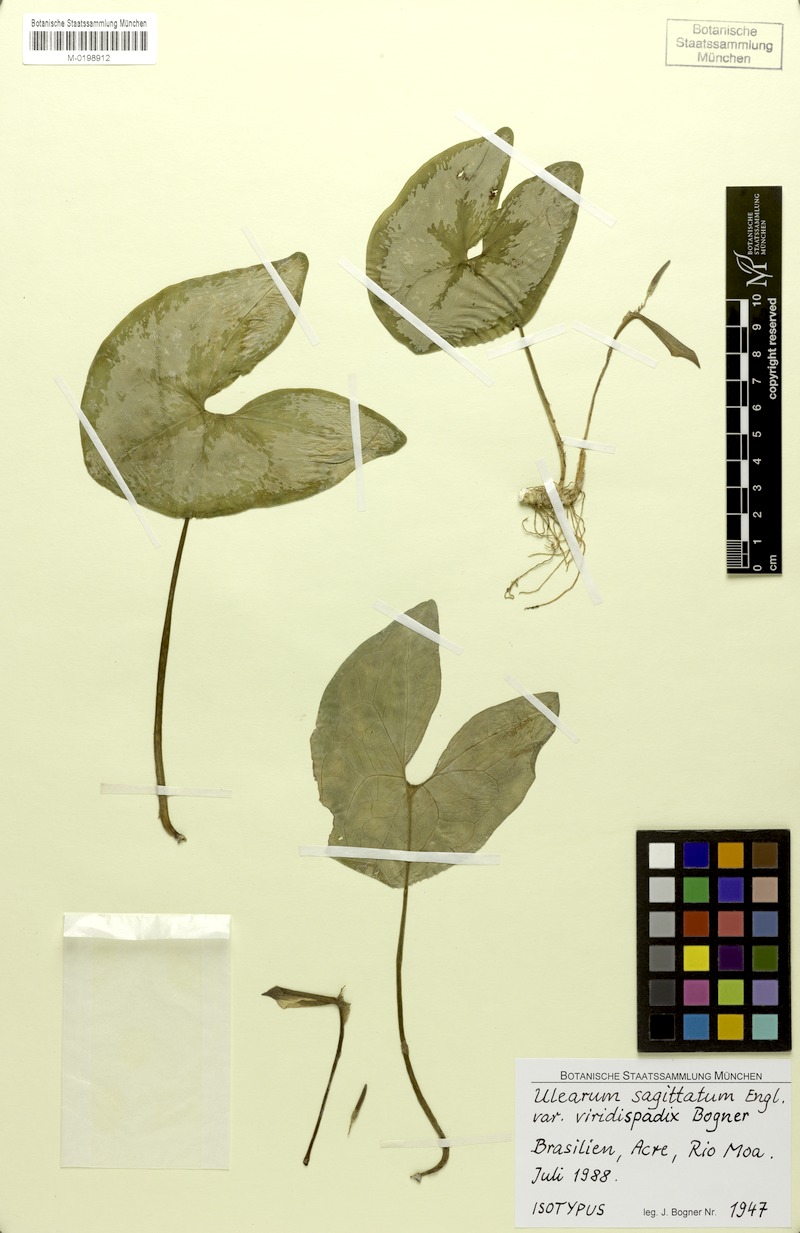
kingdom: Plantae
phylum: Tracheophyta
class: Liliopsida
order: Alismatales
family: Araceae
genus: Ulearum
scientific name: Ulearum sagittatum
